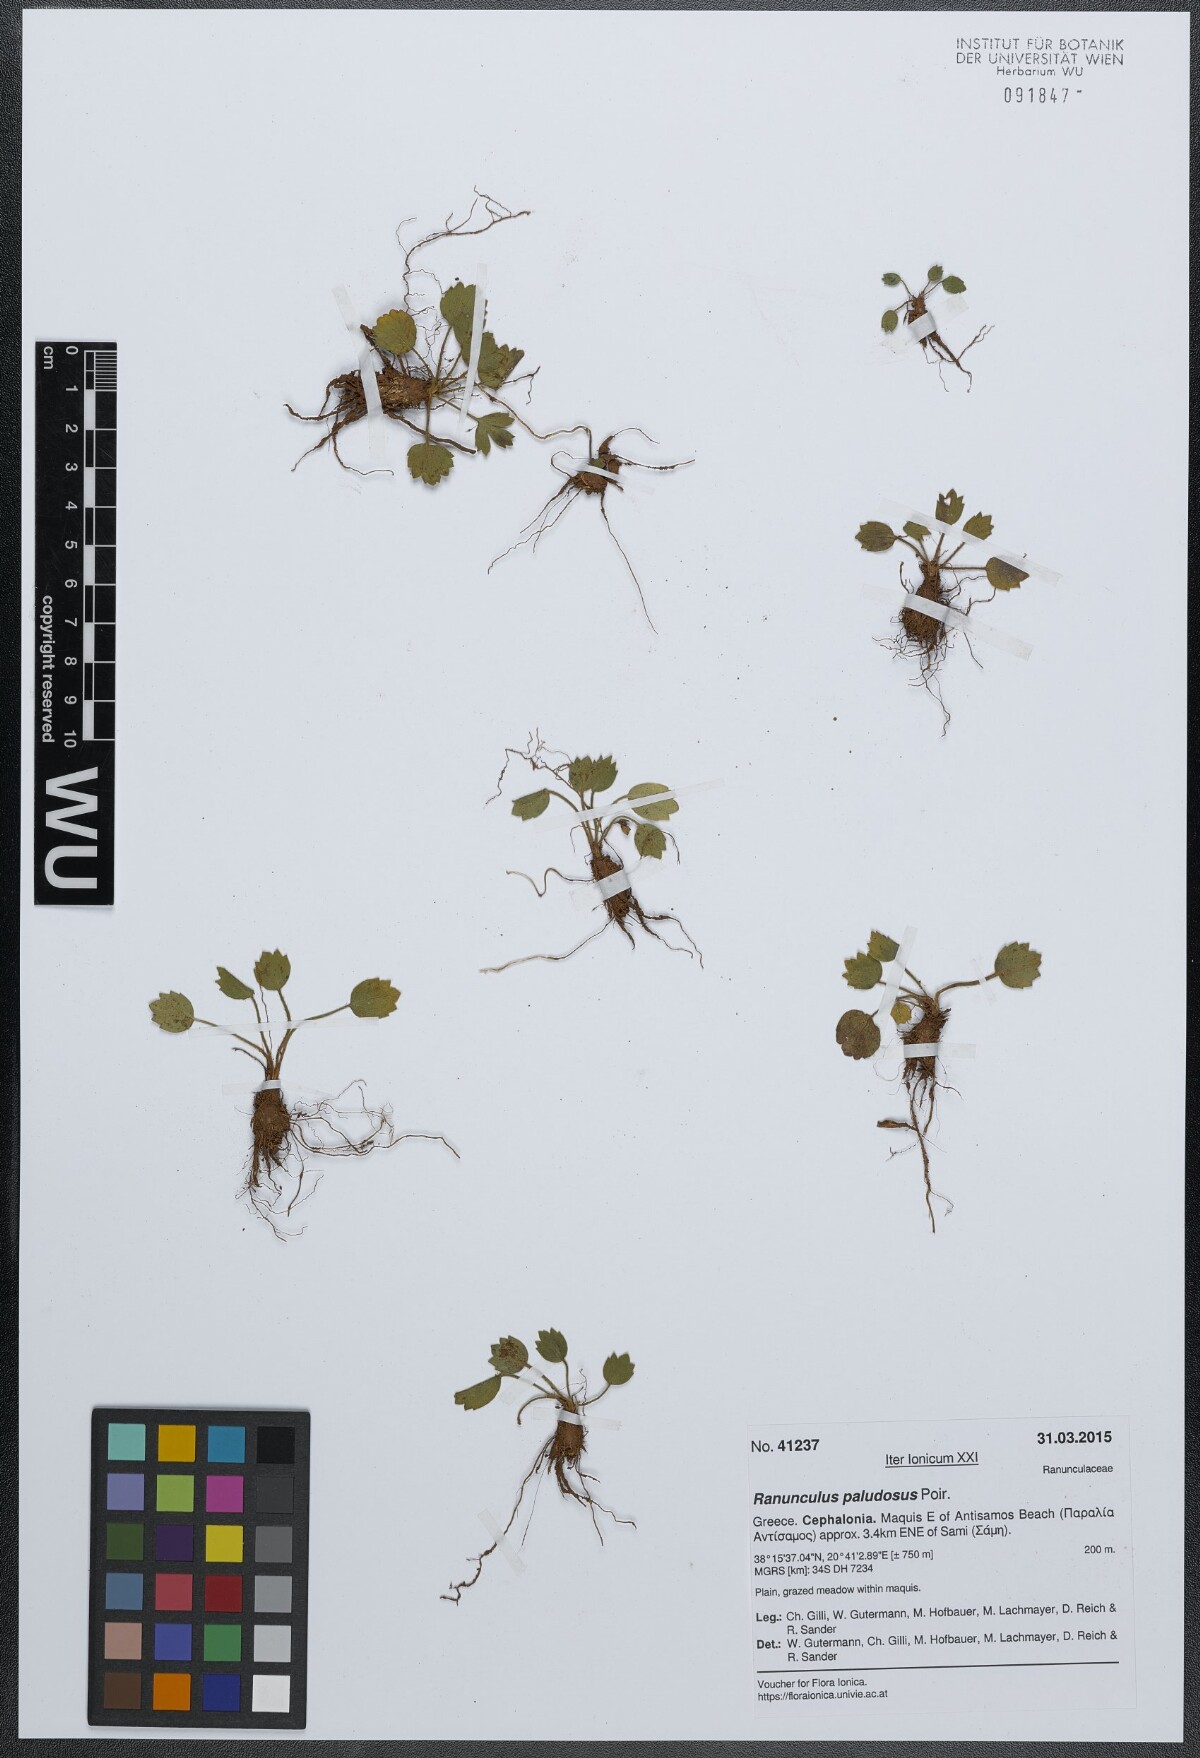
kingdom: Plantae
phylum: Tracheophyta
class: Magnoliopsida
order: Ranunculales
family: Ranunculaceae
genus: Ranunculus
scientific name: Ranunculus paludosus
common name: Jersey buttercup
